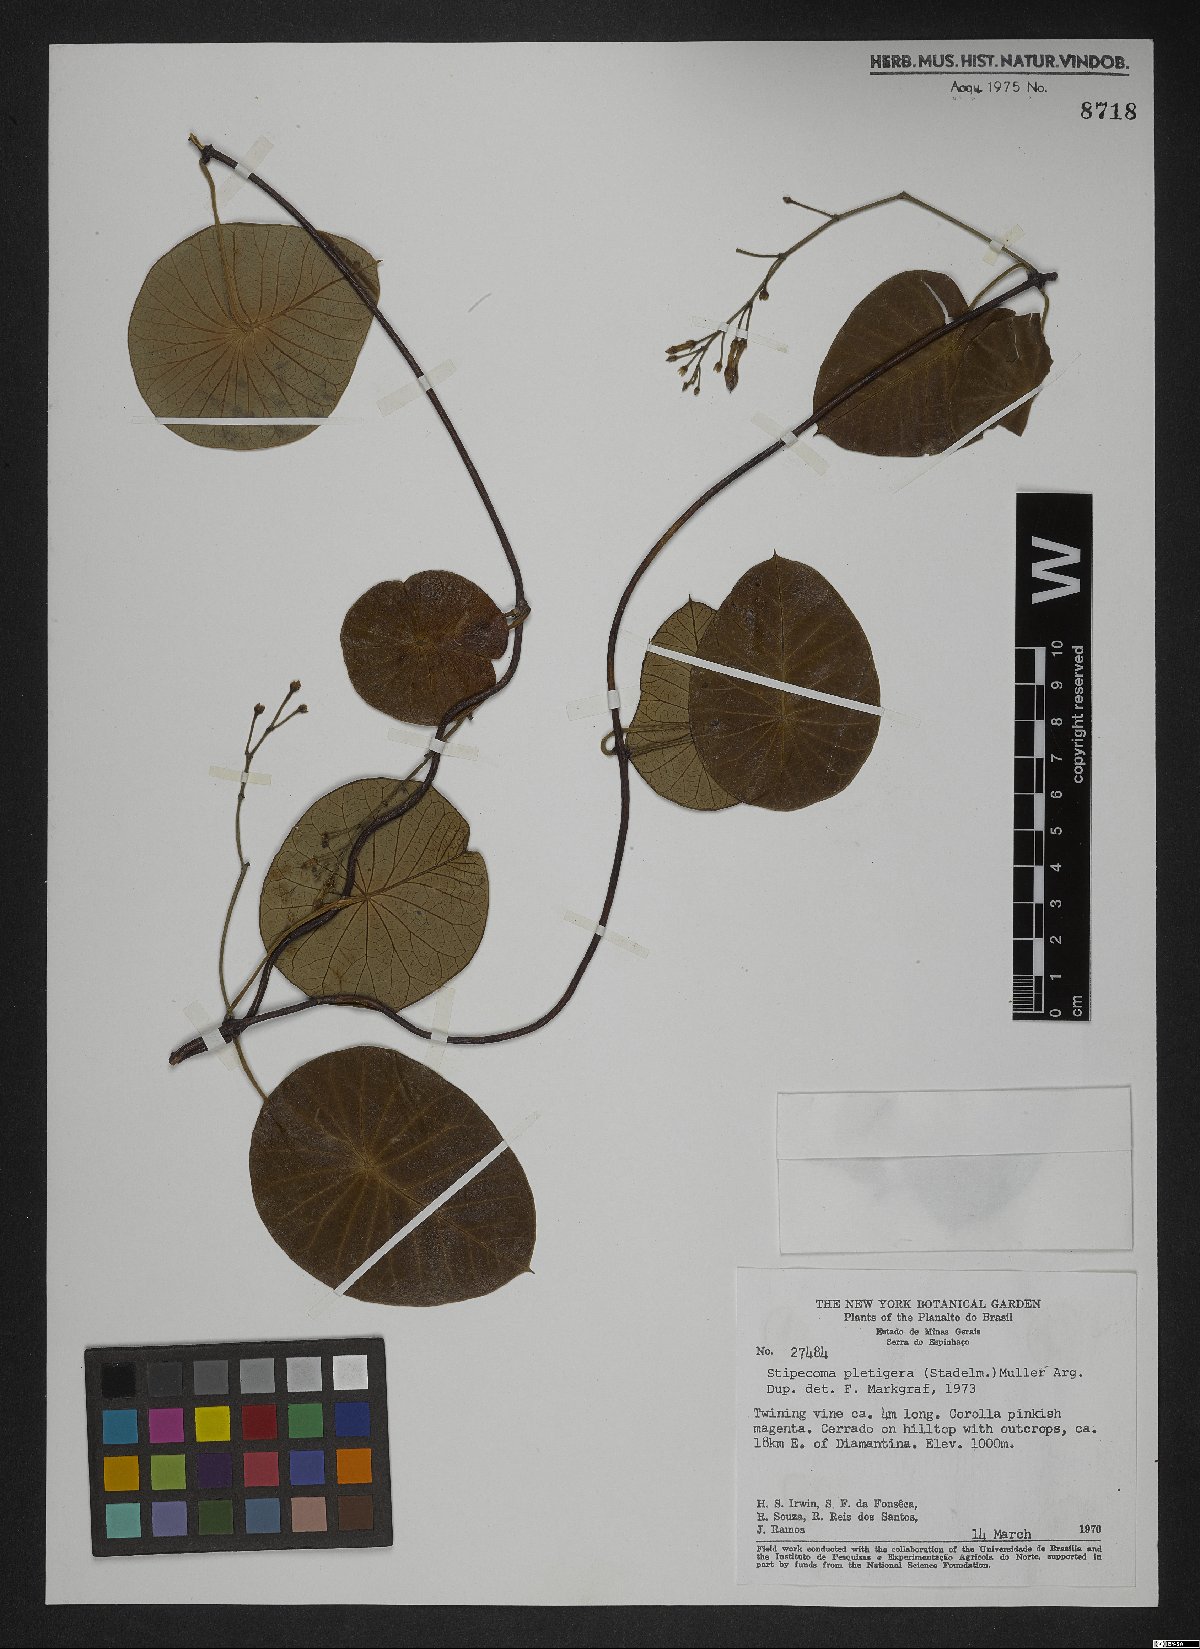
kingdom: Plantae
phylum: Tracheophyta
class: Magnoliopsida
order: Gentianales
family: Apocynaceae
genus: Stipecoma
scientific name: Stipecoma peltigera
